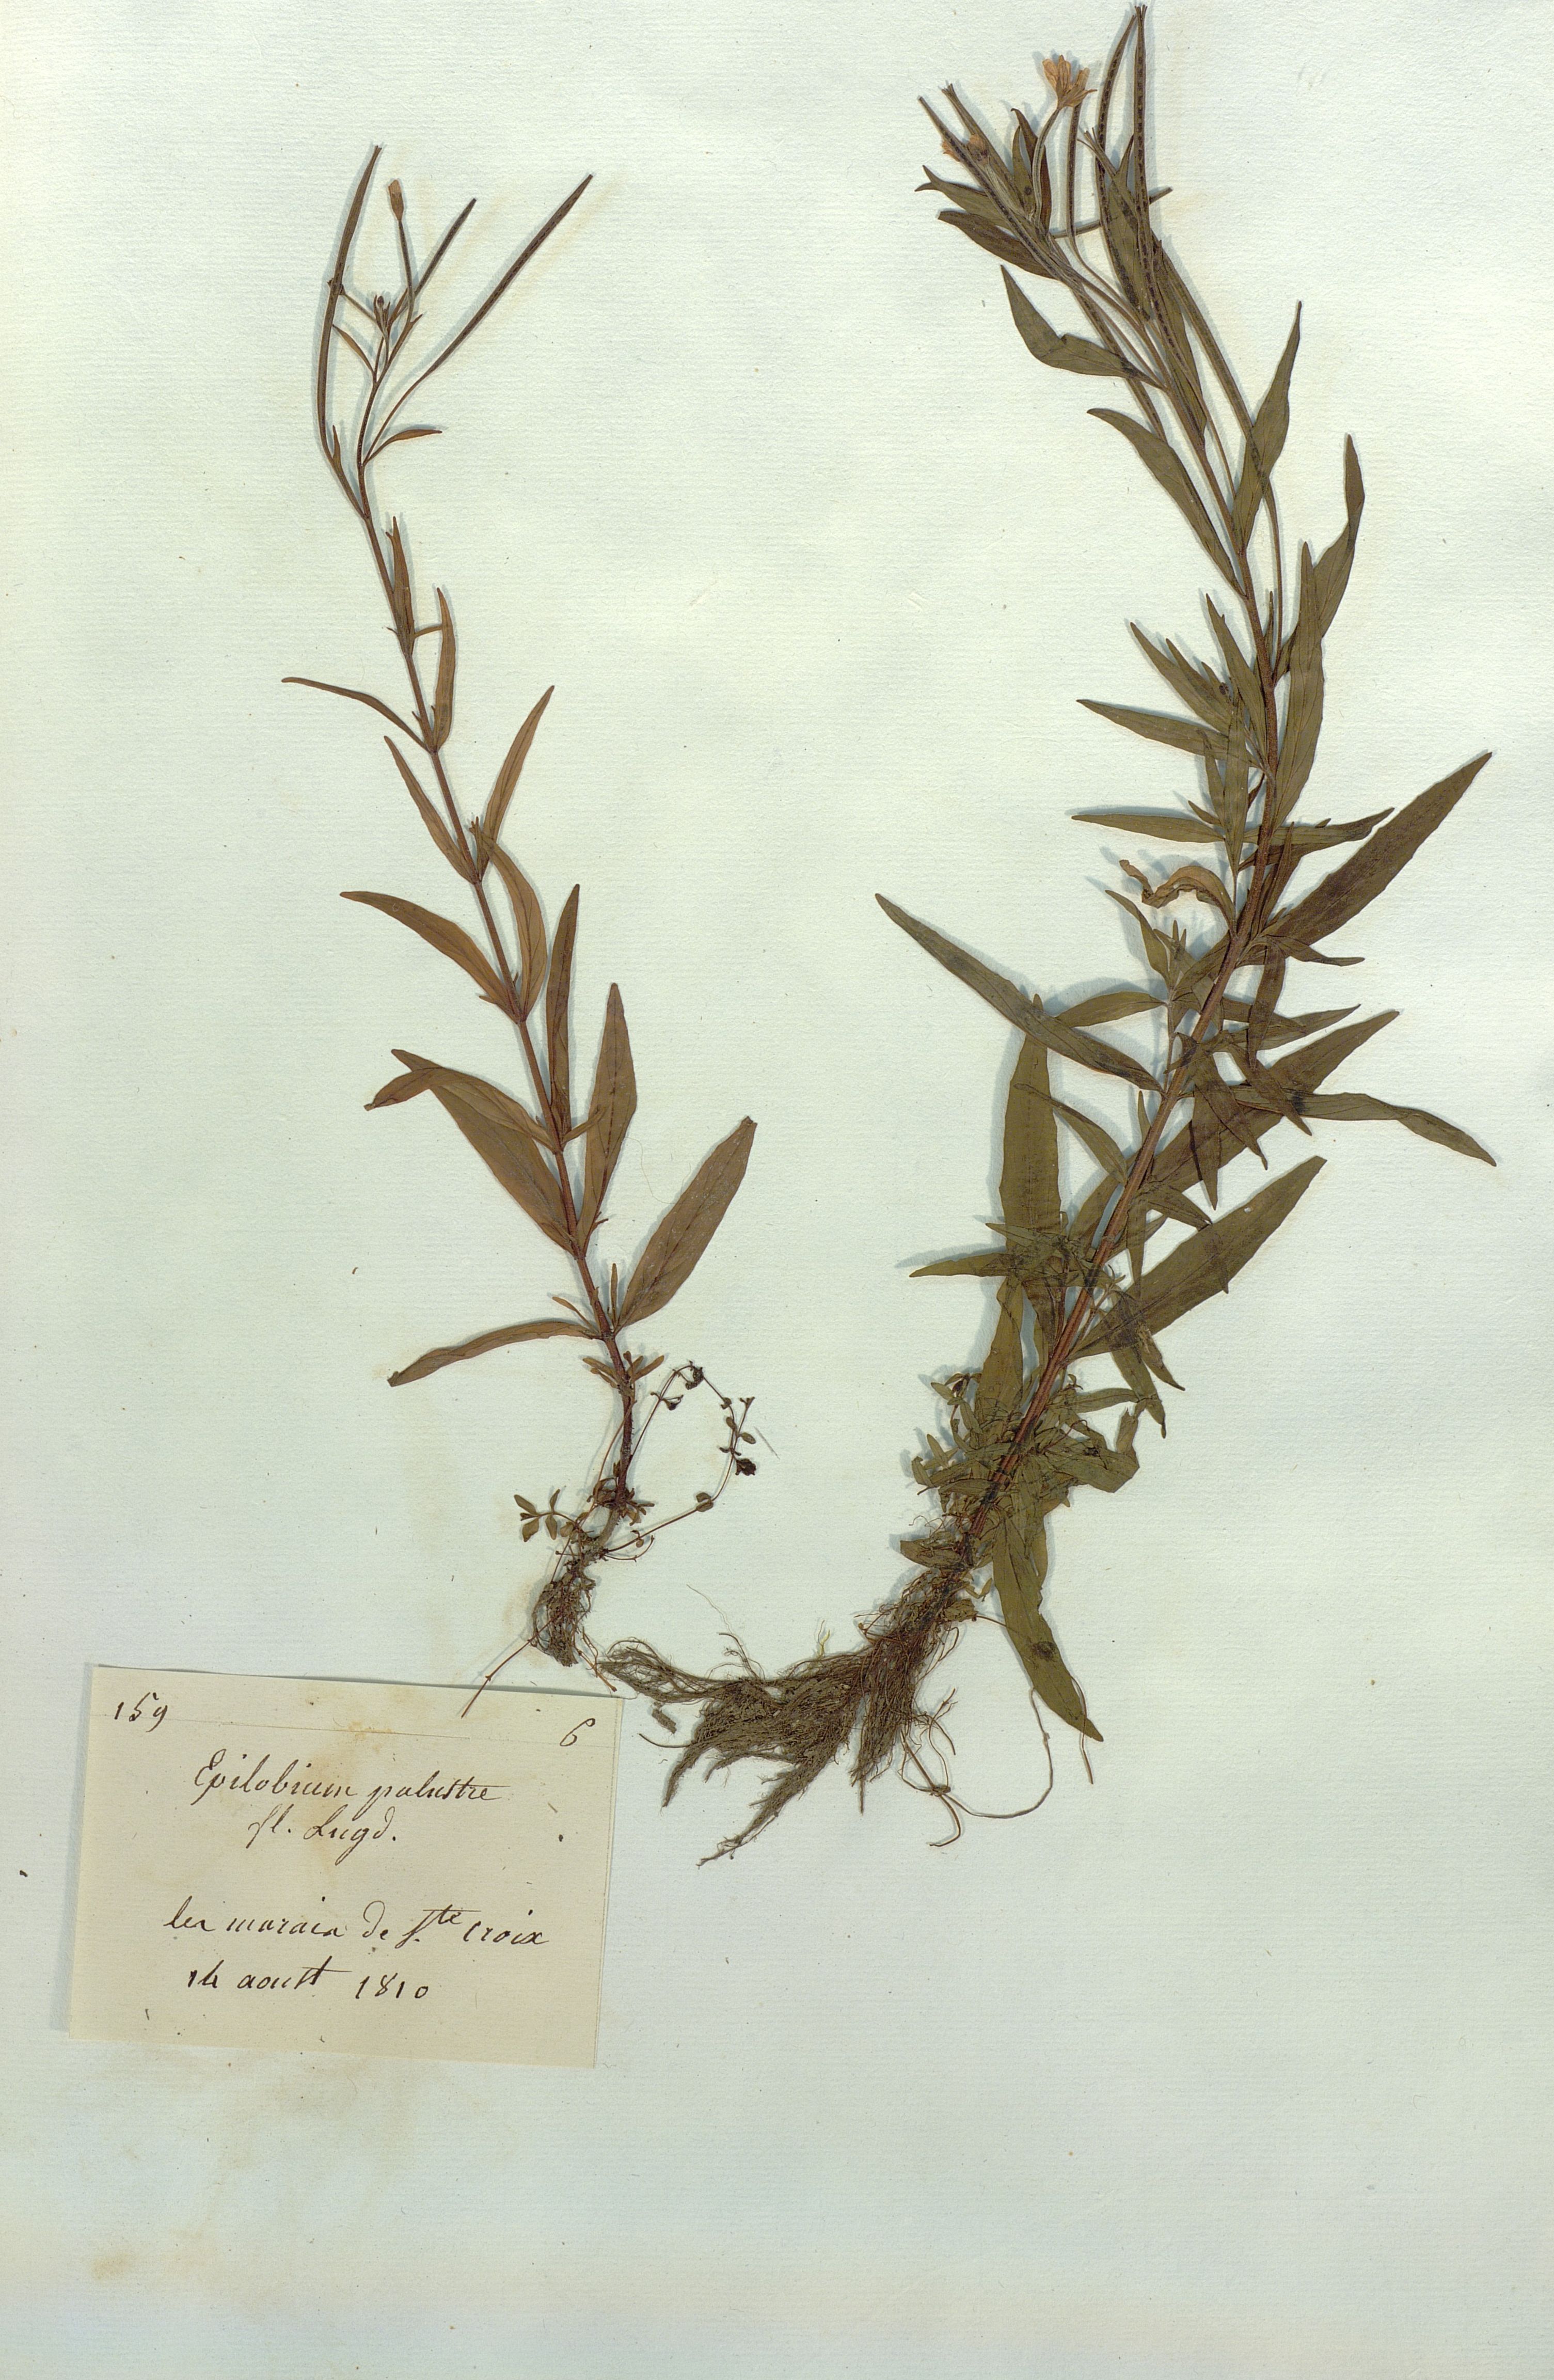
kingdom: Plantae
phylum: Tracheophyta
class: Magnoliopsida
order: Myrtales
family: Onagraceae
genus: Epilobium
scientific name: Epilobium palustre
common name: Marsh willowherb
